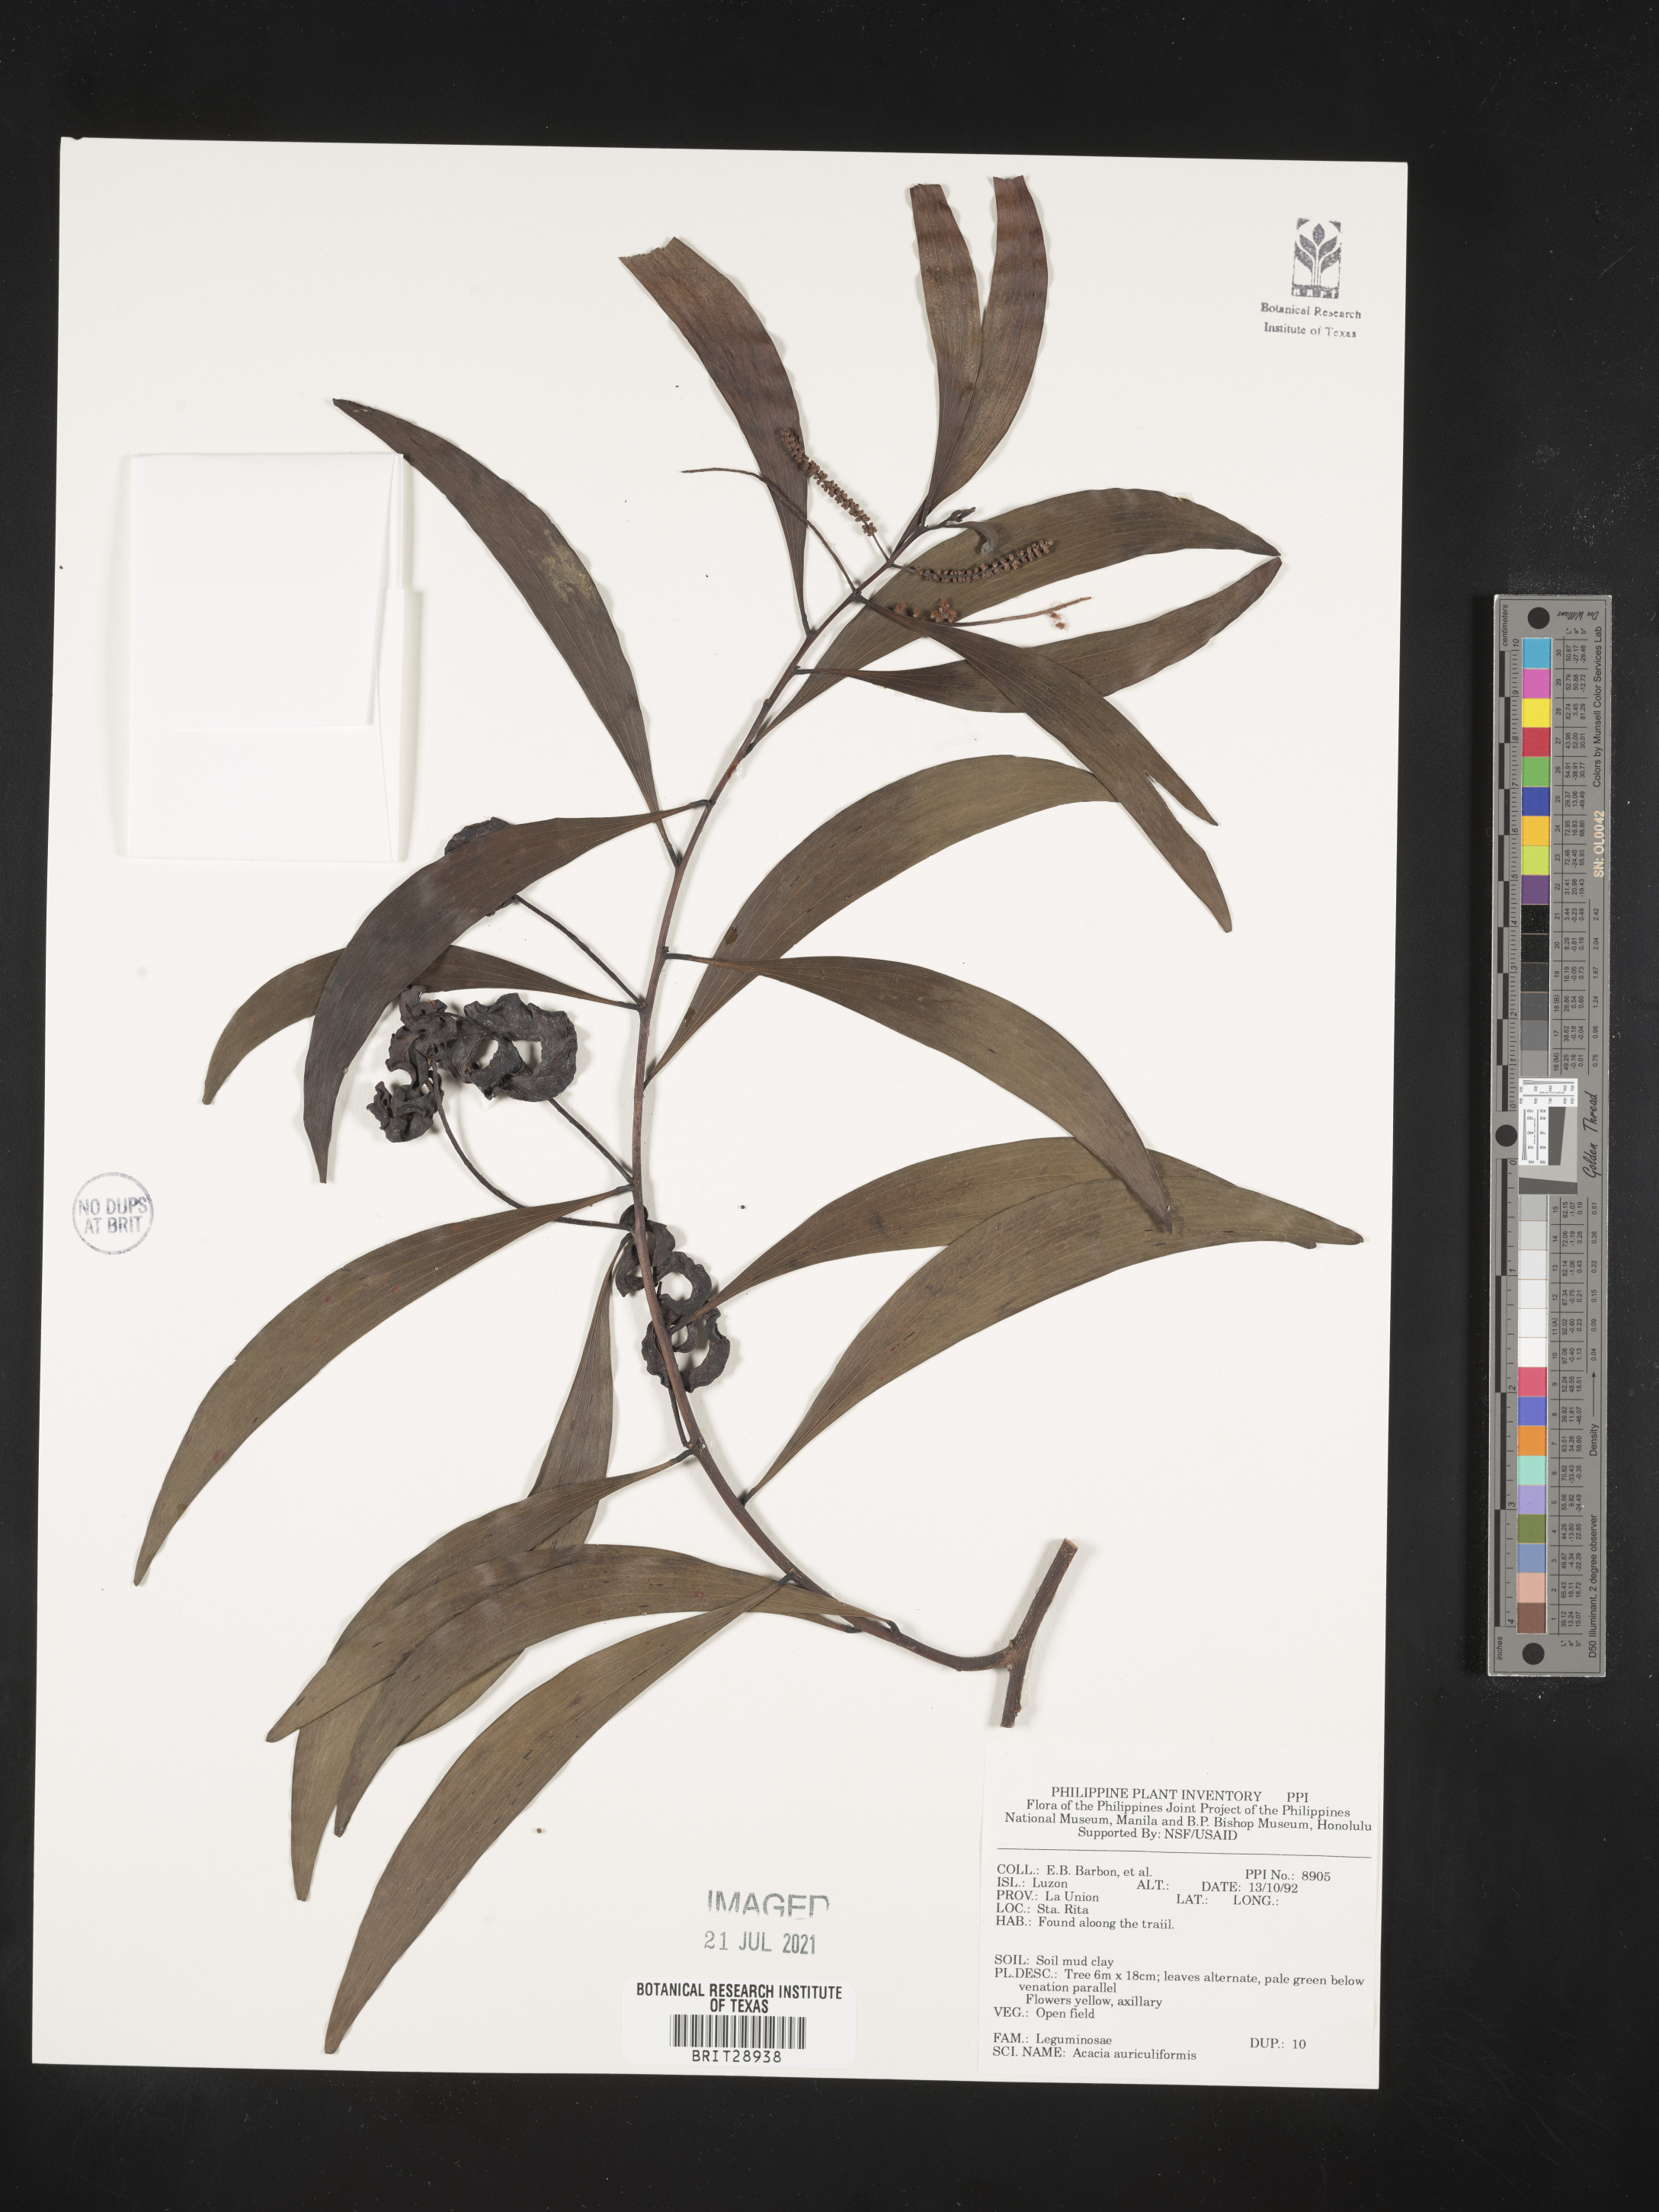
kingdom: Plantae
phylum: Tracheophyta
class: Magnoliopsida
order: Fabales
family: Fabaceae
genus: Acacia
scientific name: Acacia auriculiformis
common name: Earleaf acacia
